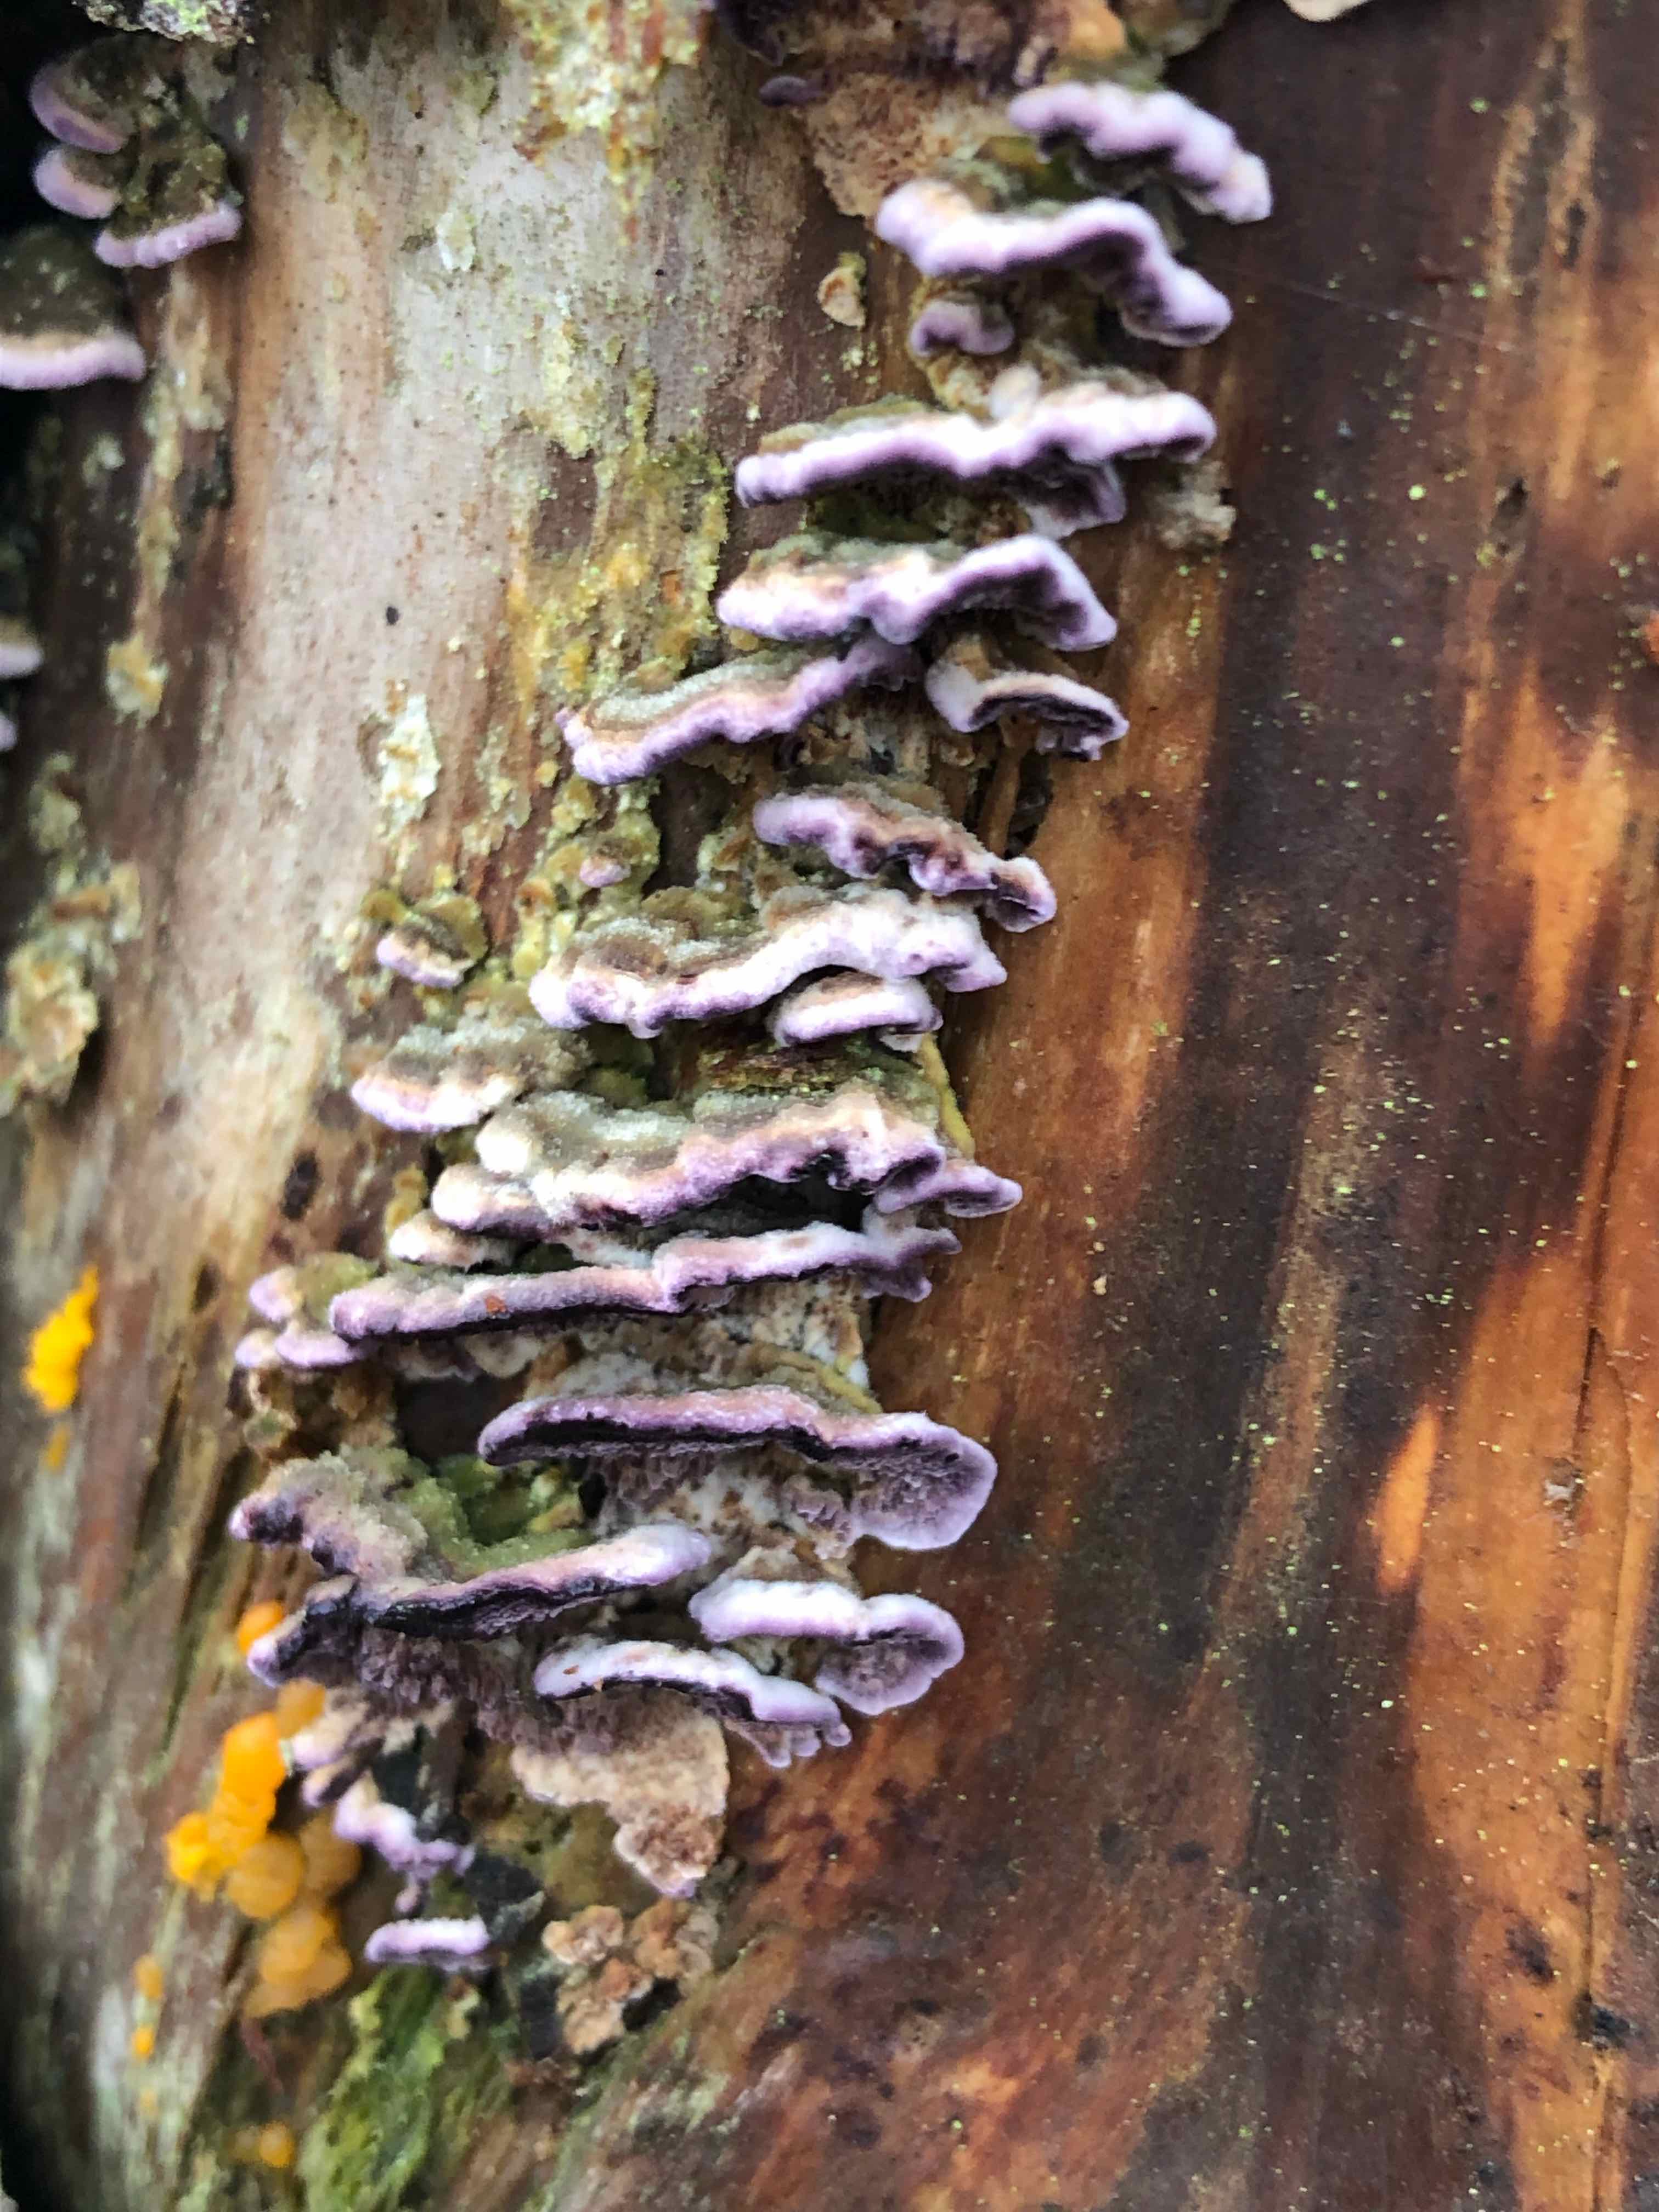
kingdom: Fungi
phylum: Basidiomycota
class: Agaricomycetes
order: Hymenochaetales
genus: Trichaptum
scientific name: Trichaptum abietinum
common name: almindelig violporesvamp
